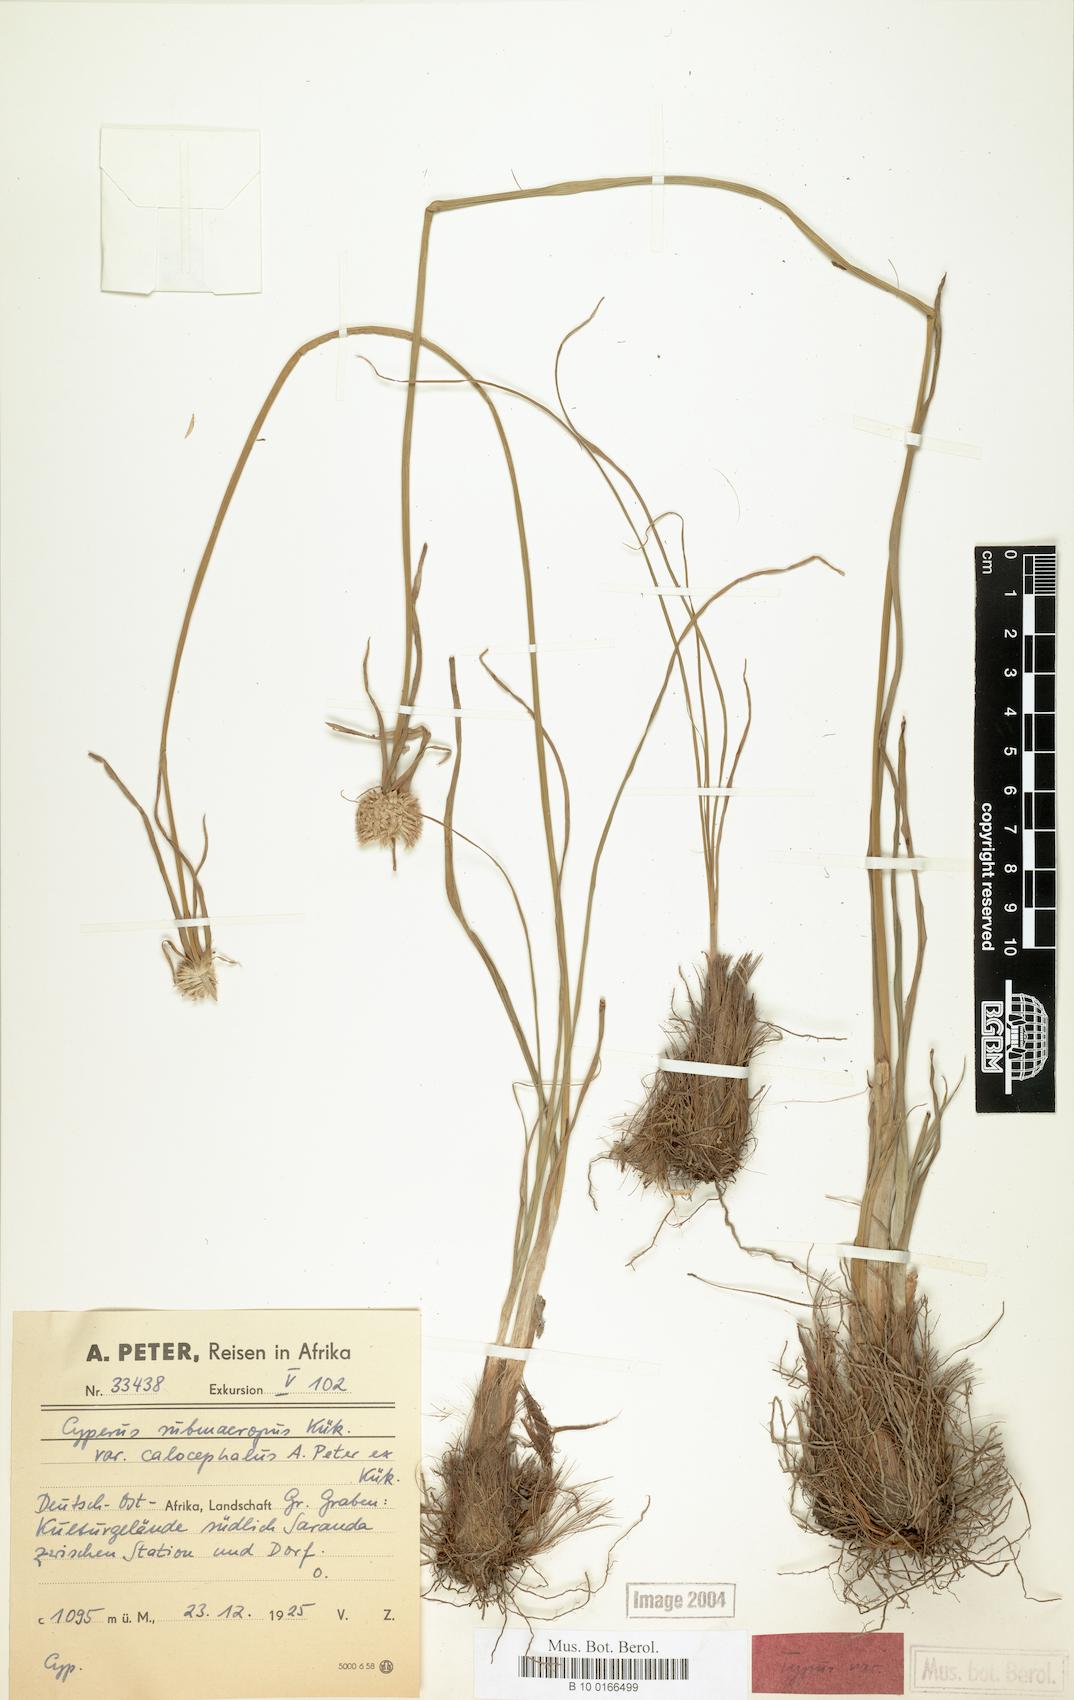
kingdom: Plantae
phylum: Tracheophyta
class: Liliopsida
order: Poales
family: Cyperaceae
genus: Cyperus
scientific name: Cyperus mollipes
